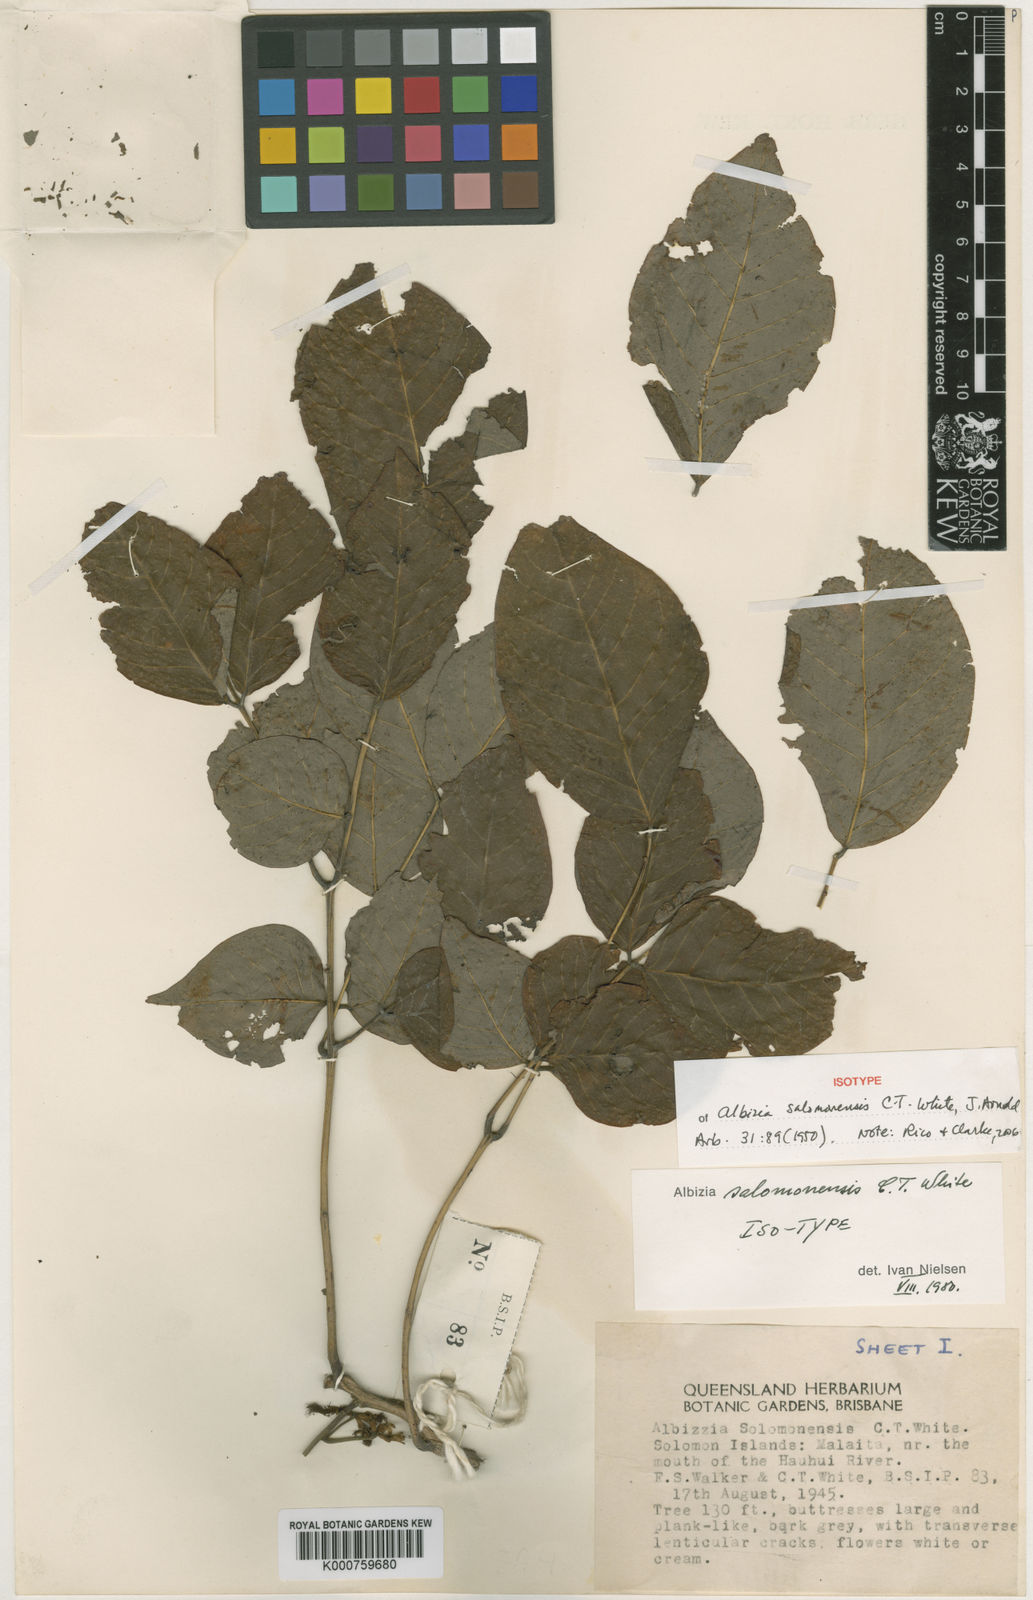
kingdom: Plantae
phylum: Tracheophyta
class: Magnoliopsida
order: Fabales
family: Fabaceae
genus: Albizia
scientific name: Albizia salomonensis
